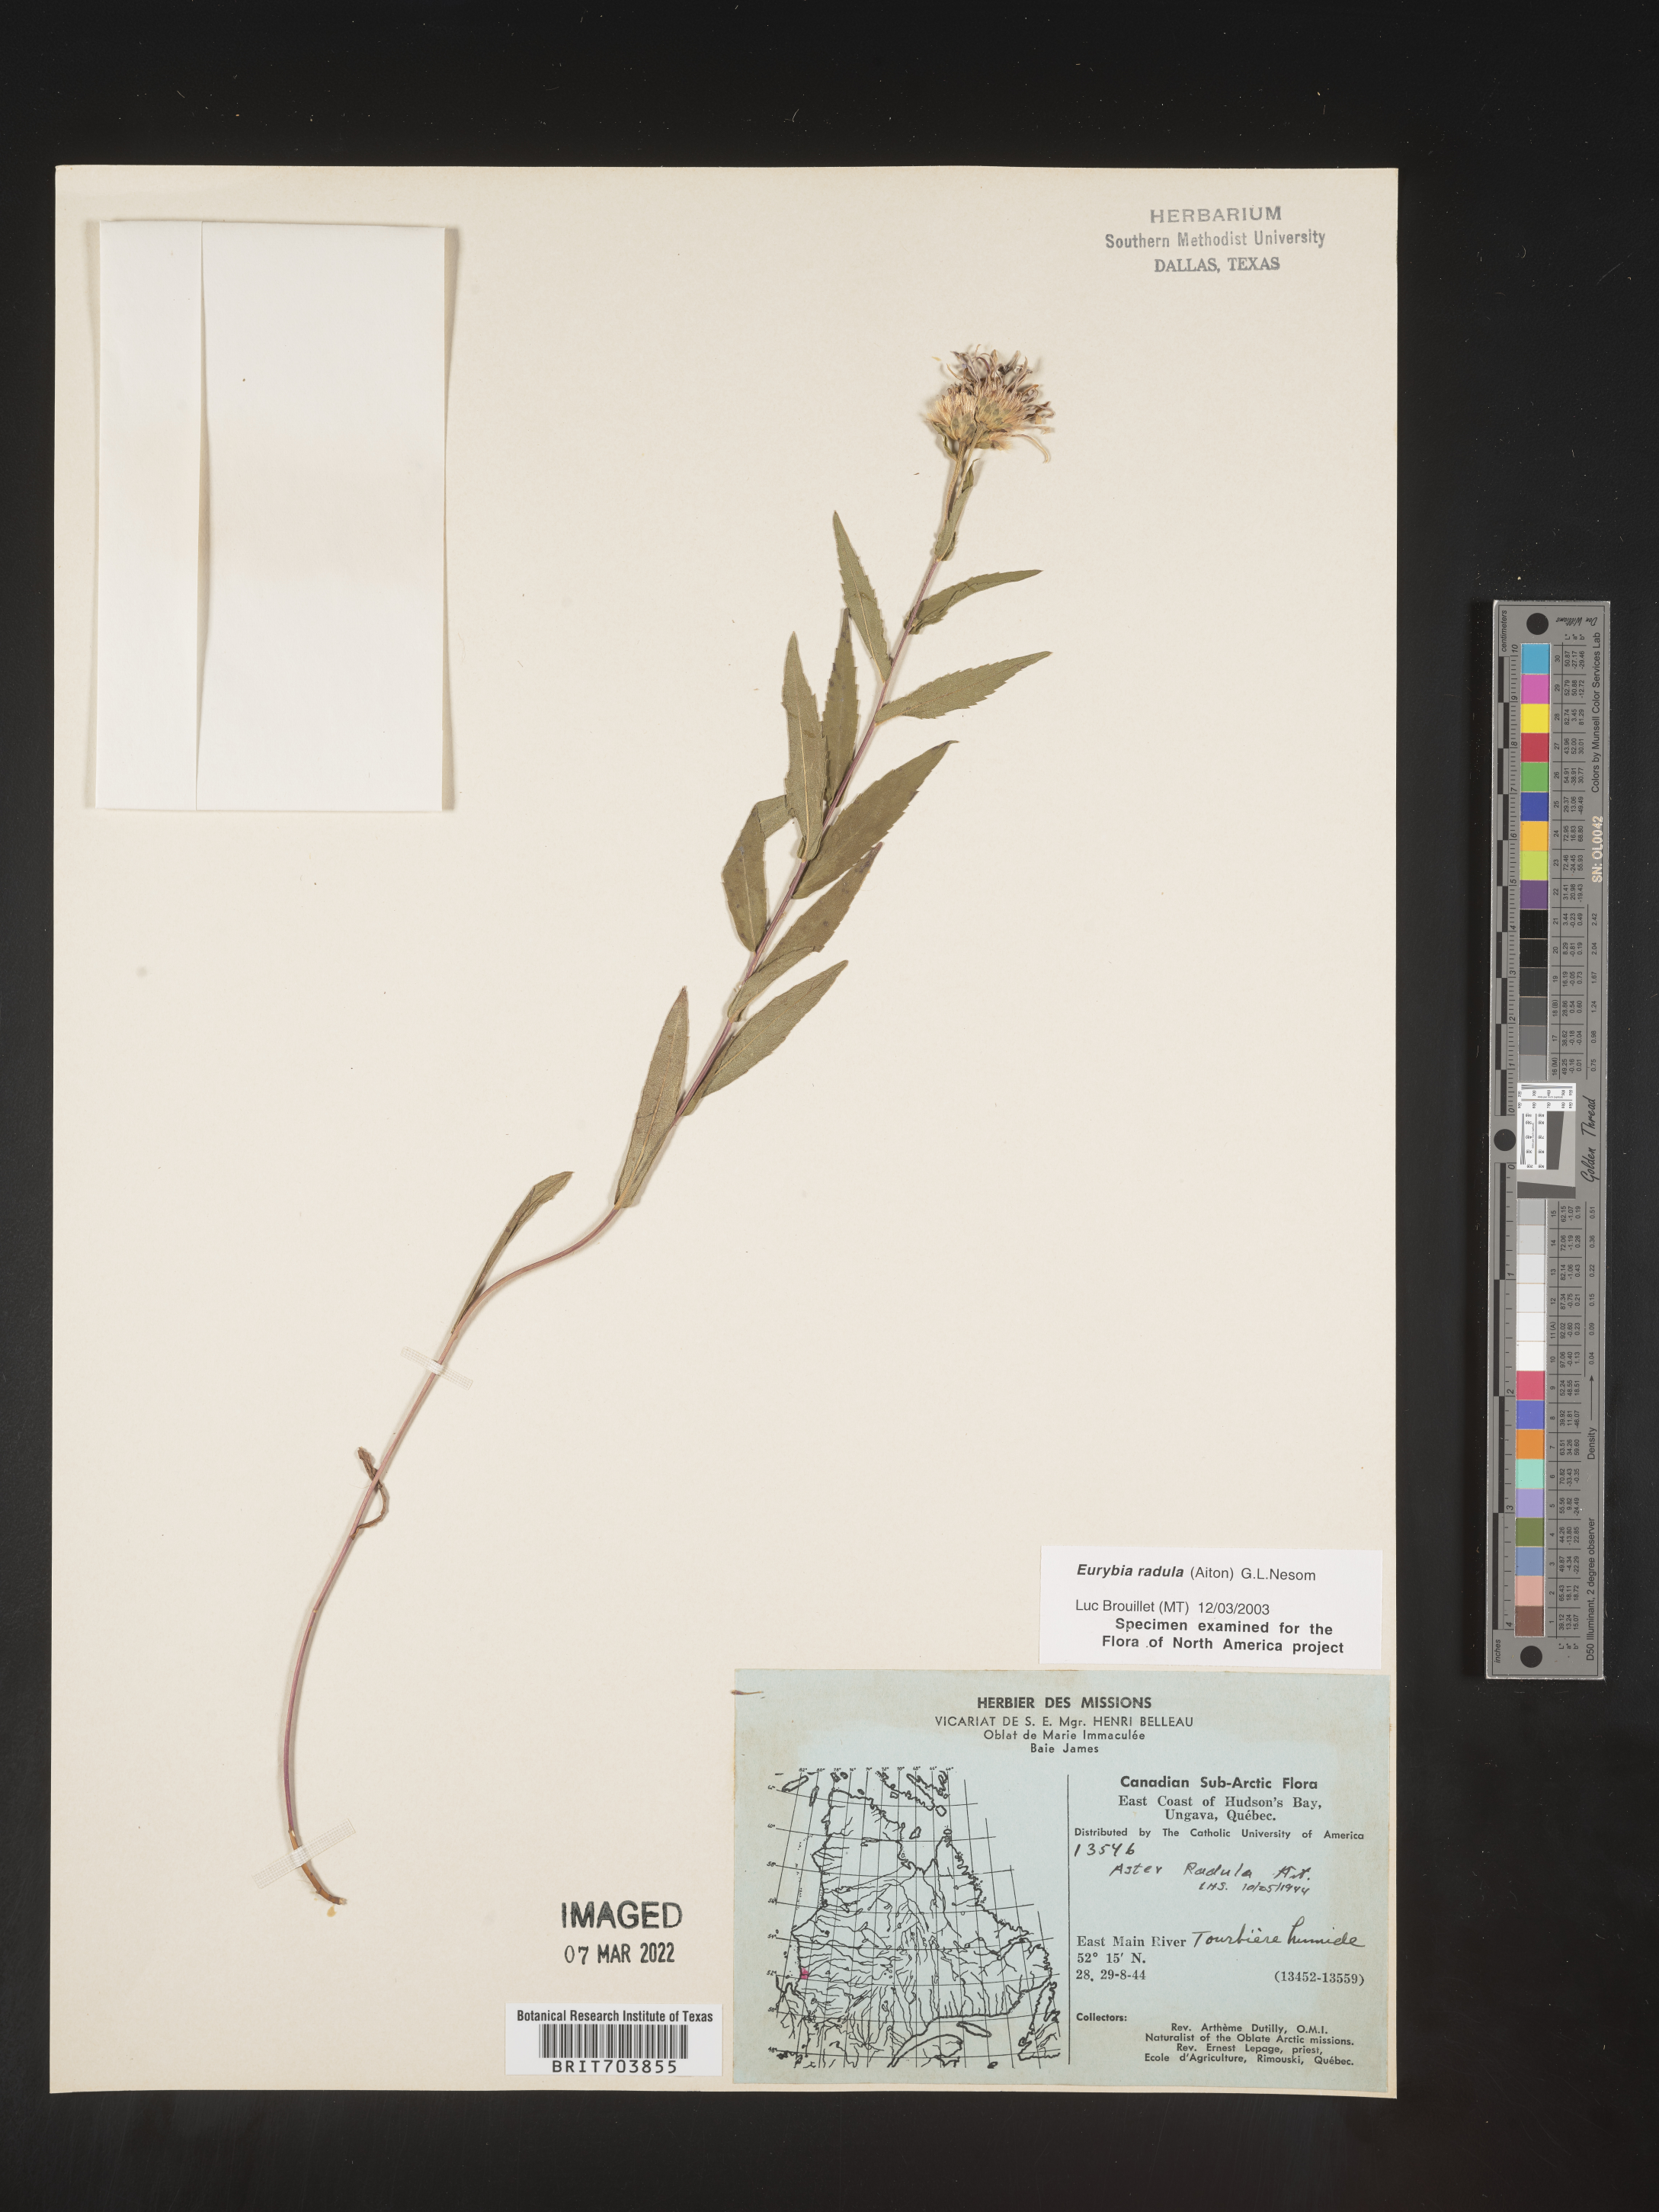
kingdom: Plantae
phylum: Tracheophyta
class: Magnoliopsida
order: Asterales
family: Asteraceae
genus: Eurybia
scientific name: Eurybia radula
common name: Low rough aster
